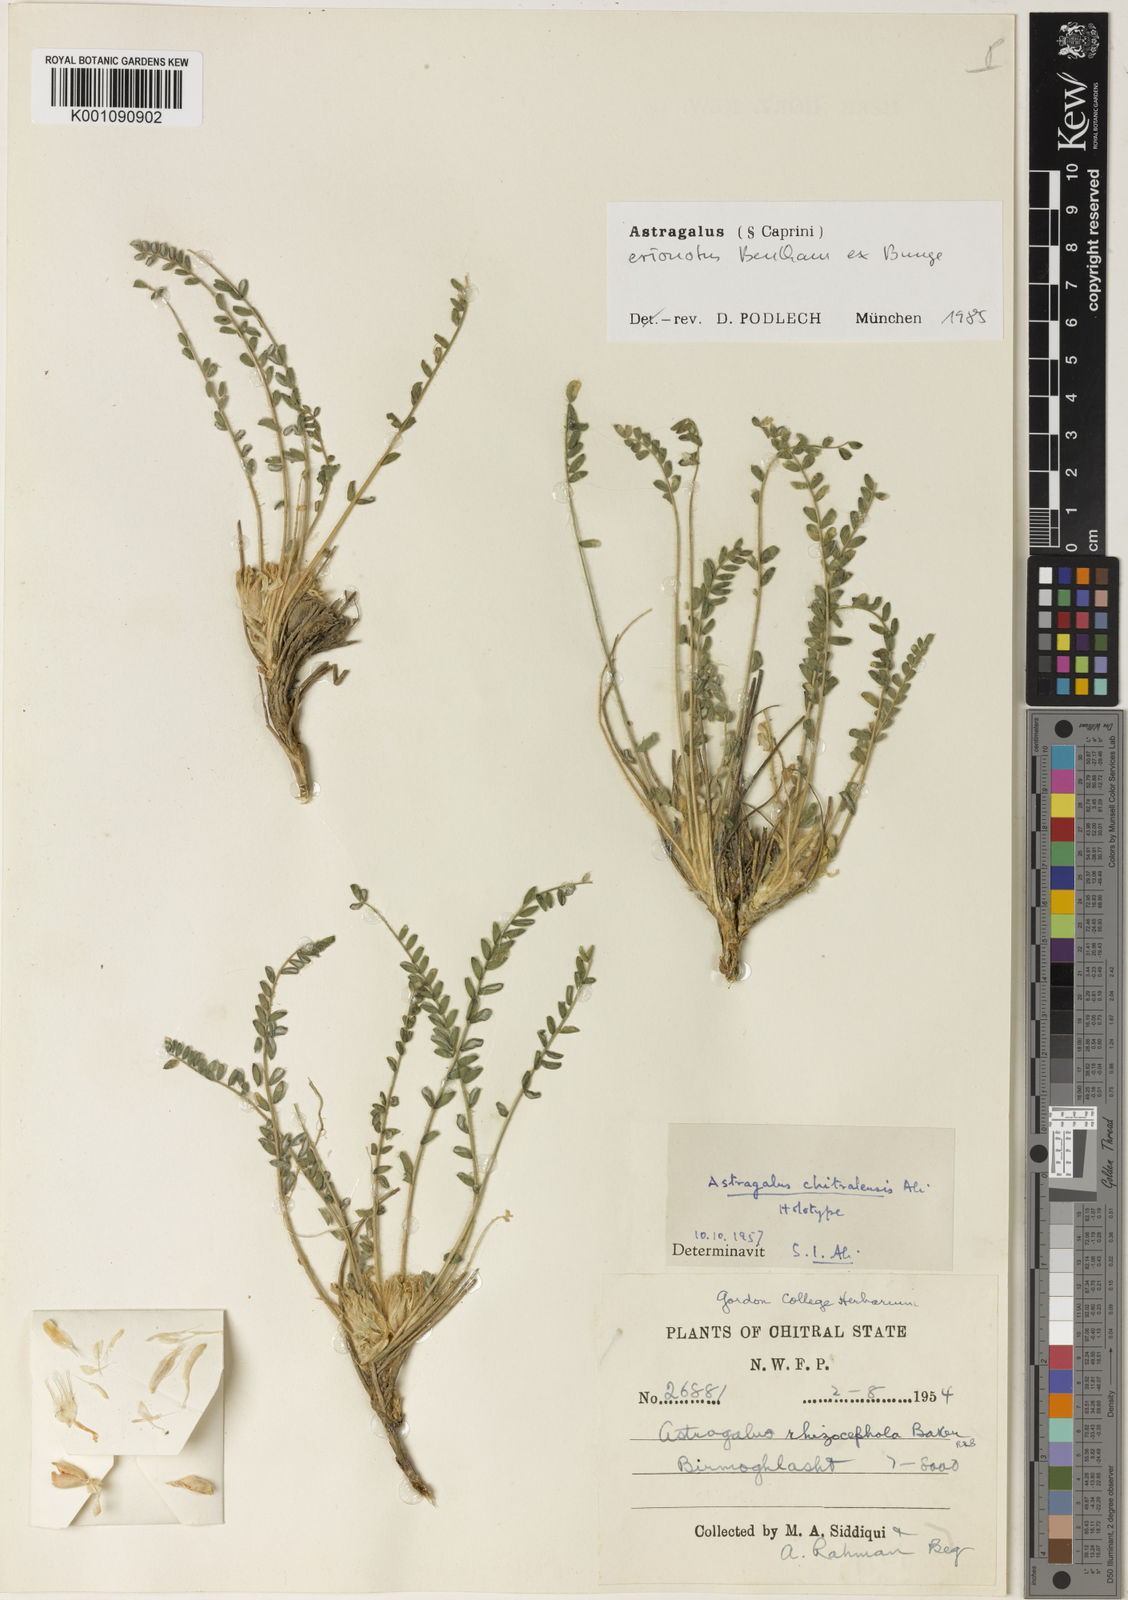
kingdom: Plantae
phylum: Tracheophyta
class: Magnoliopsida
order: Fabales
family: Fabaceae
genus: Astragalus
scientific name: Astragalus
